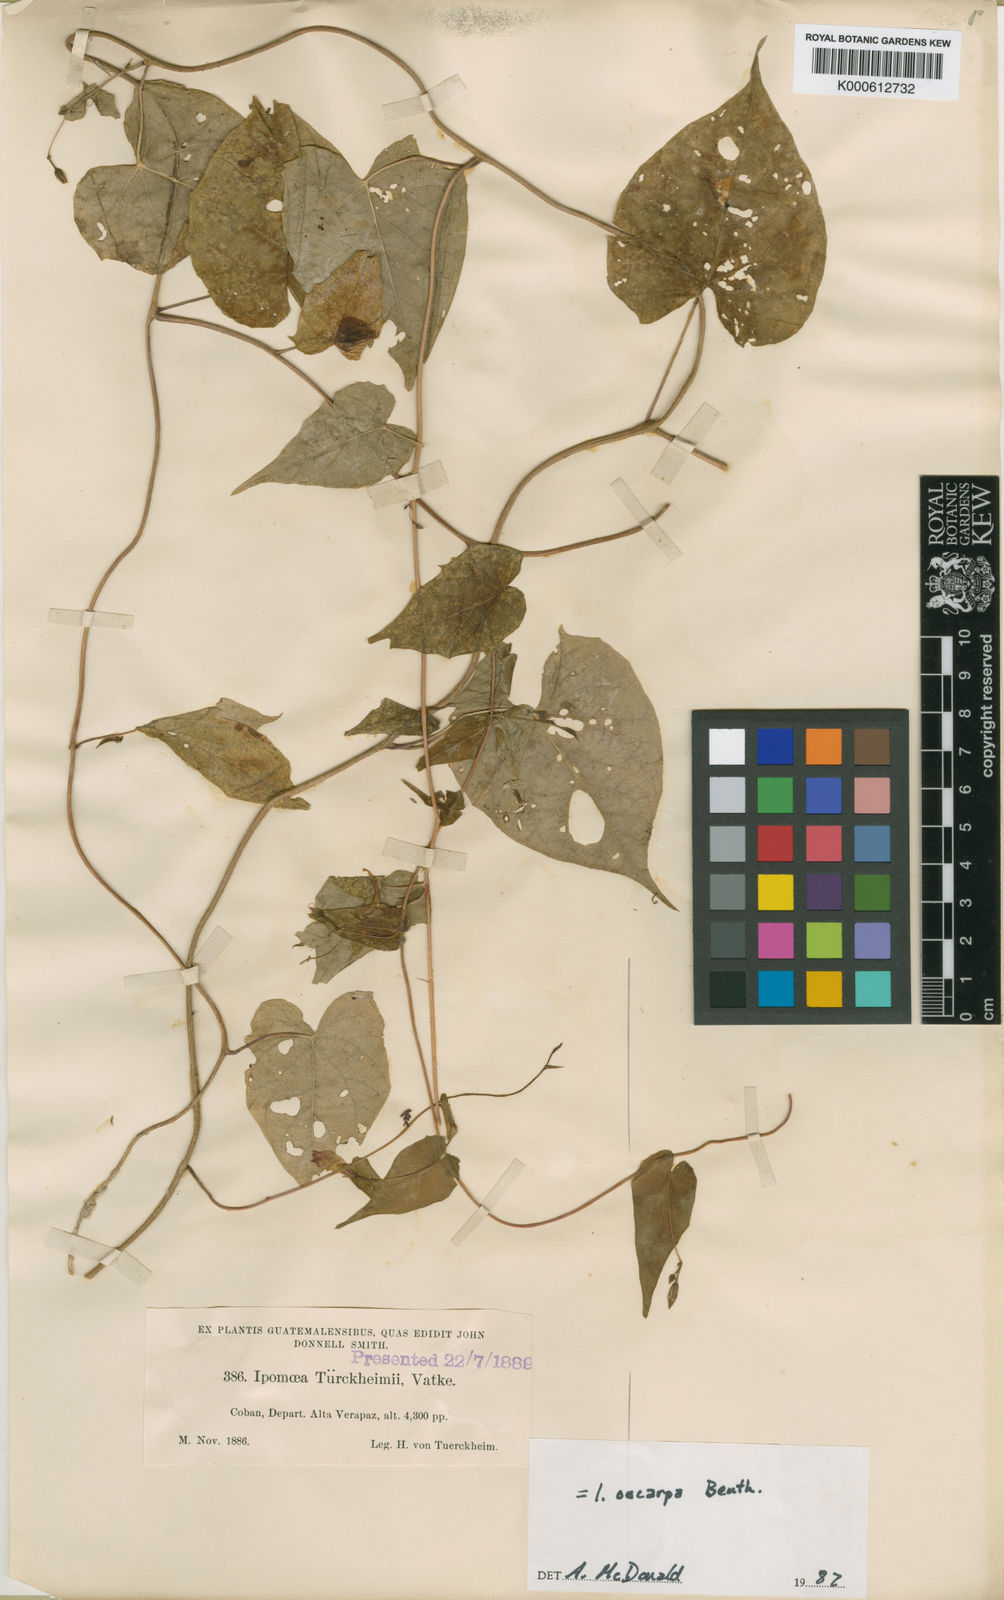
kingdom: Plantae
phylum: Tracheophyta
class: Magnoliopsida
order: Solanales
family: Convolvulaceae
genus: Ipomoea
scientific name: Ipomoea aristolochiifolia
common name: Aristolochia-leaved morning-glory
